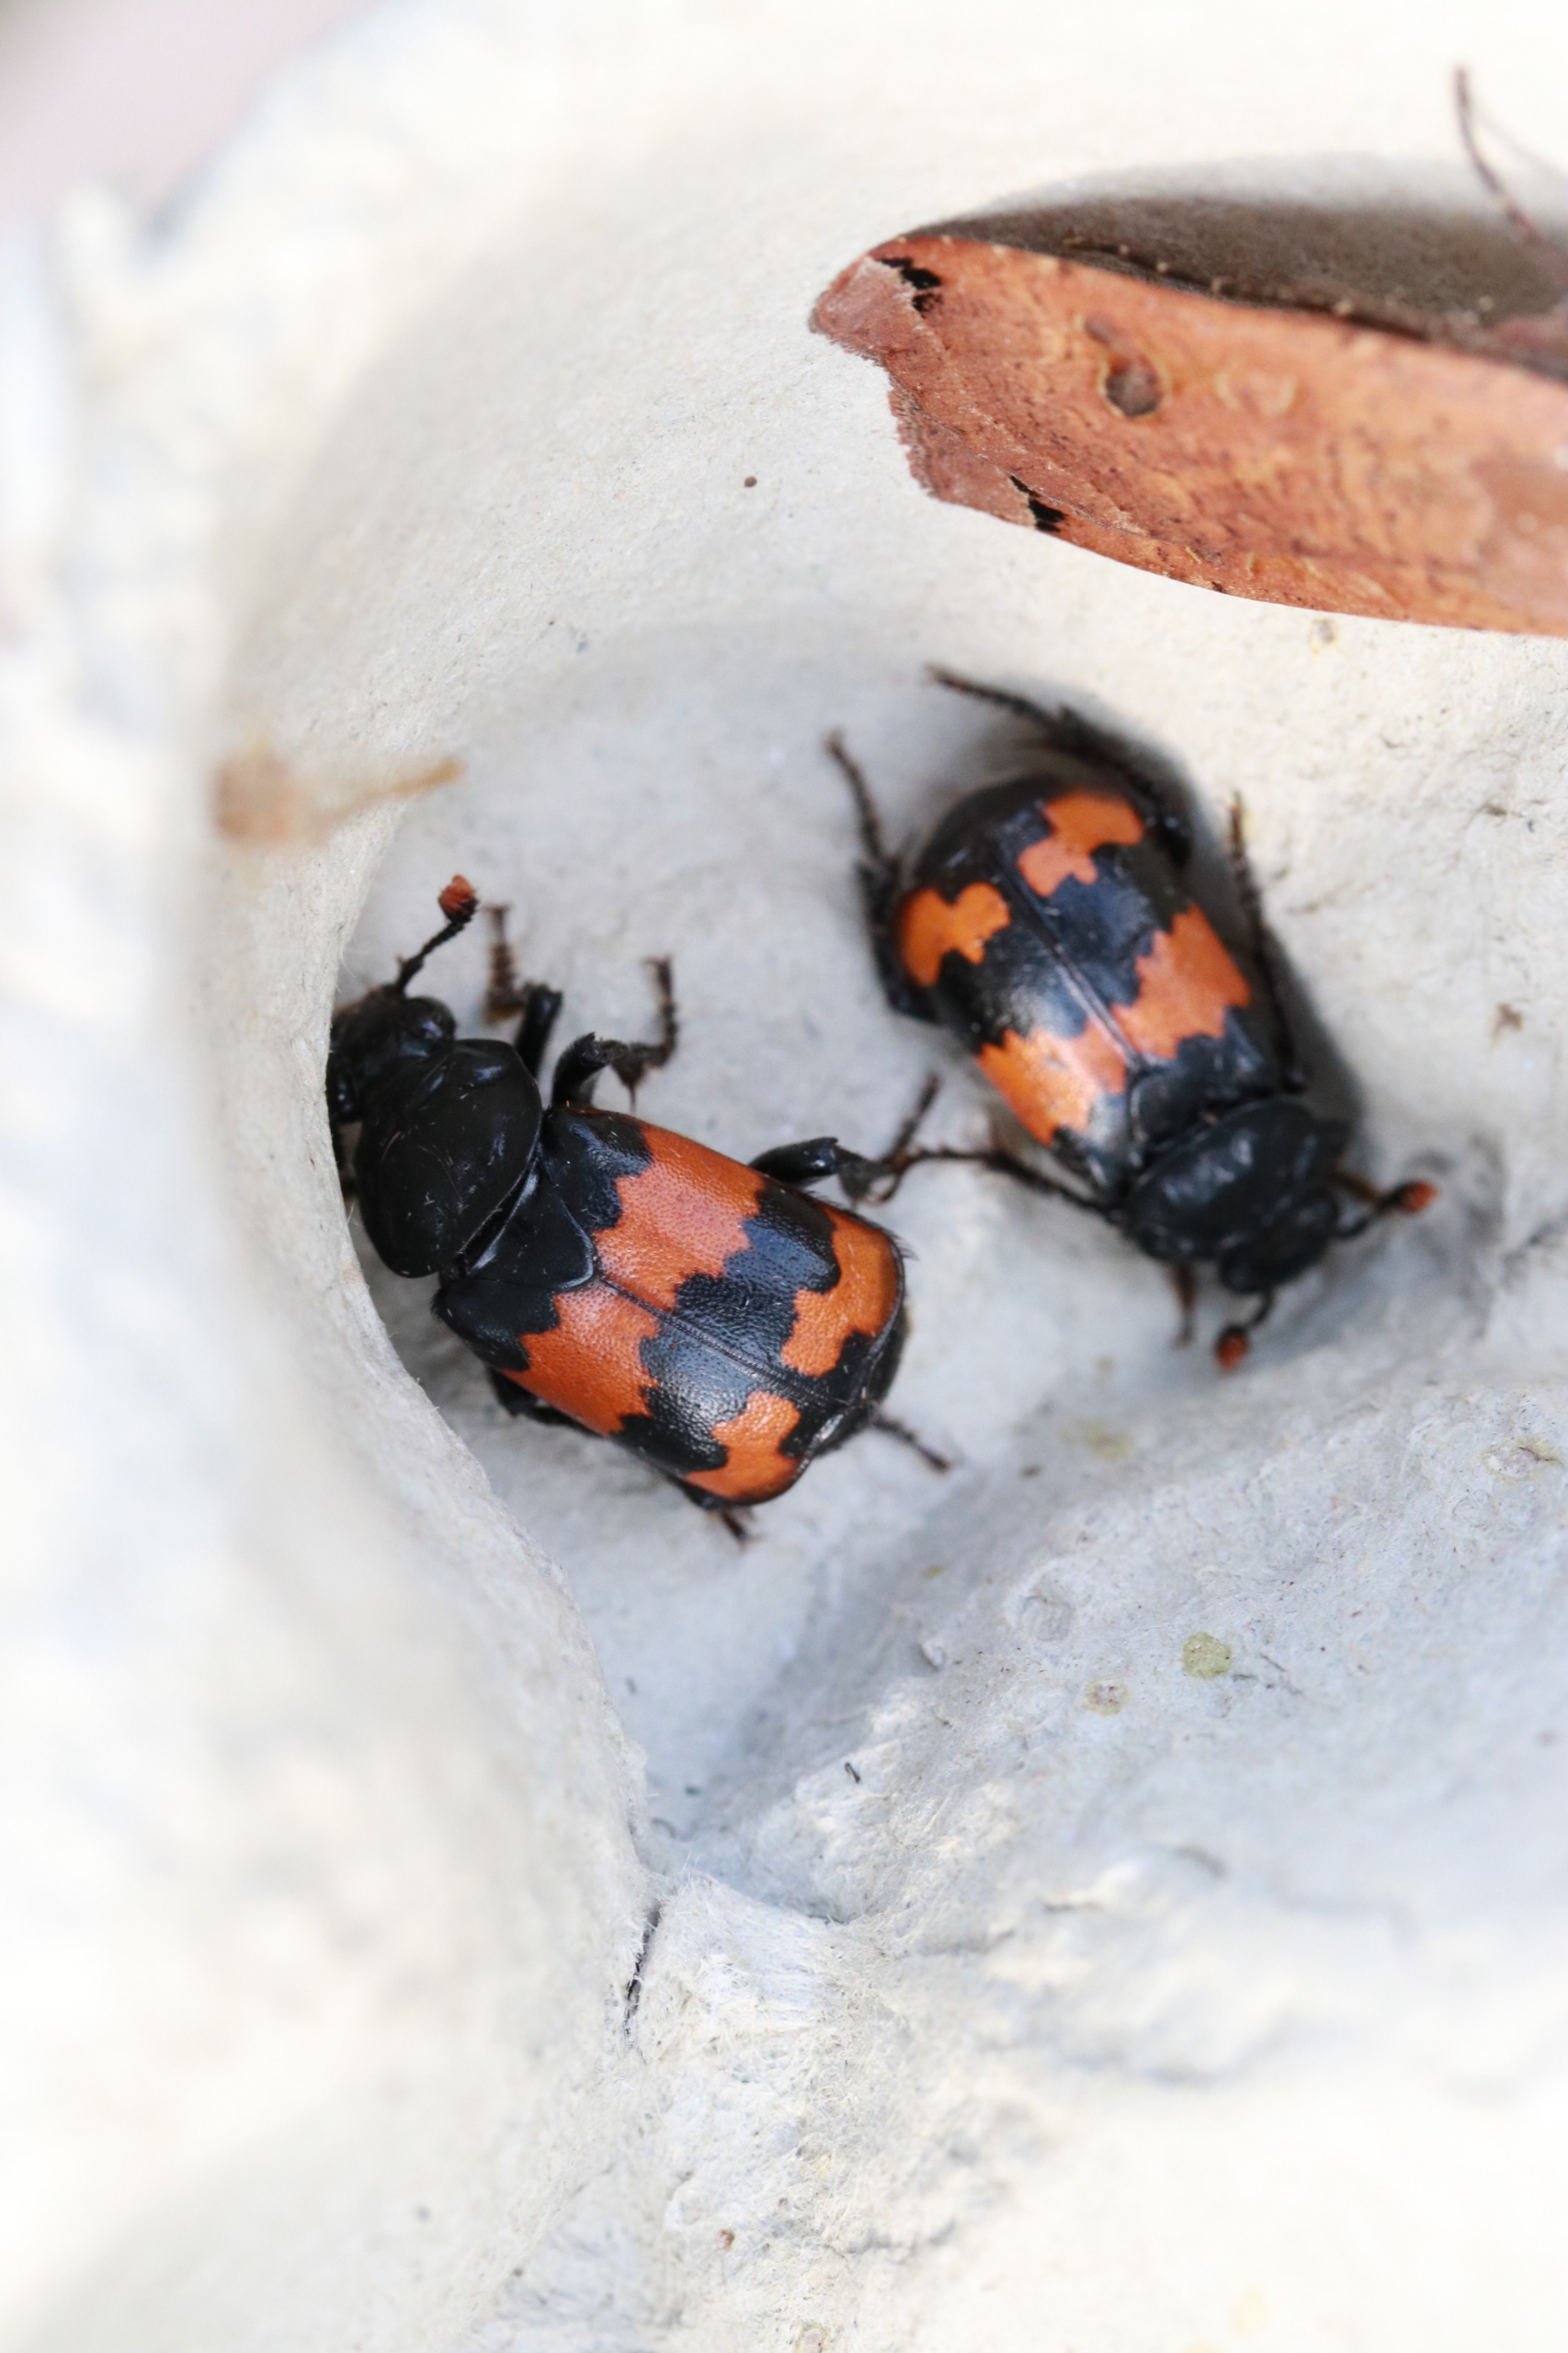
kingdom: Animalia
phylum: Arthropoda
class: Insecta
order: Coleoptera
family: Staphylinidae
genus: Nicrophorus
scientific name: Nicrophorus investigator
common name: Skovådselgraver
